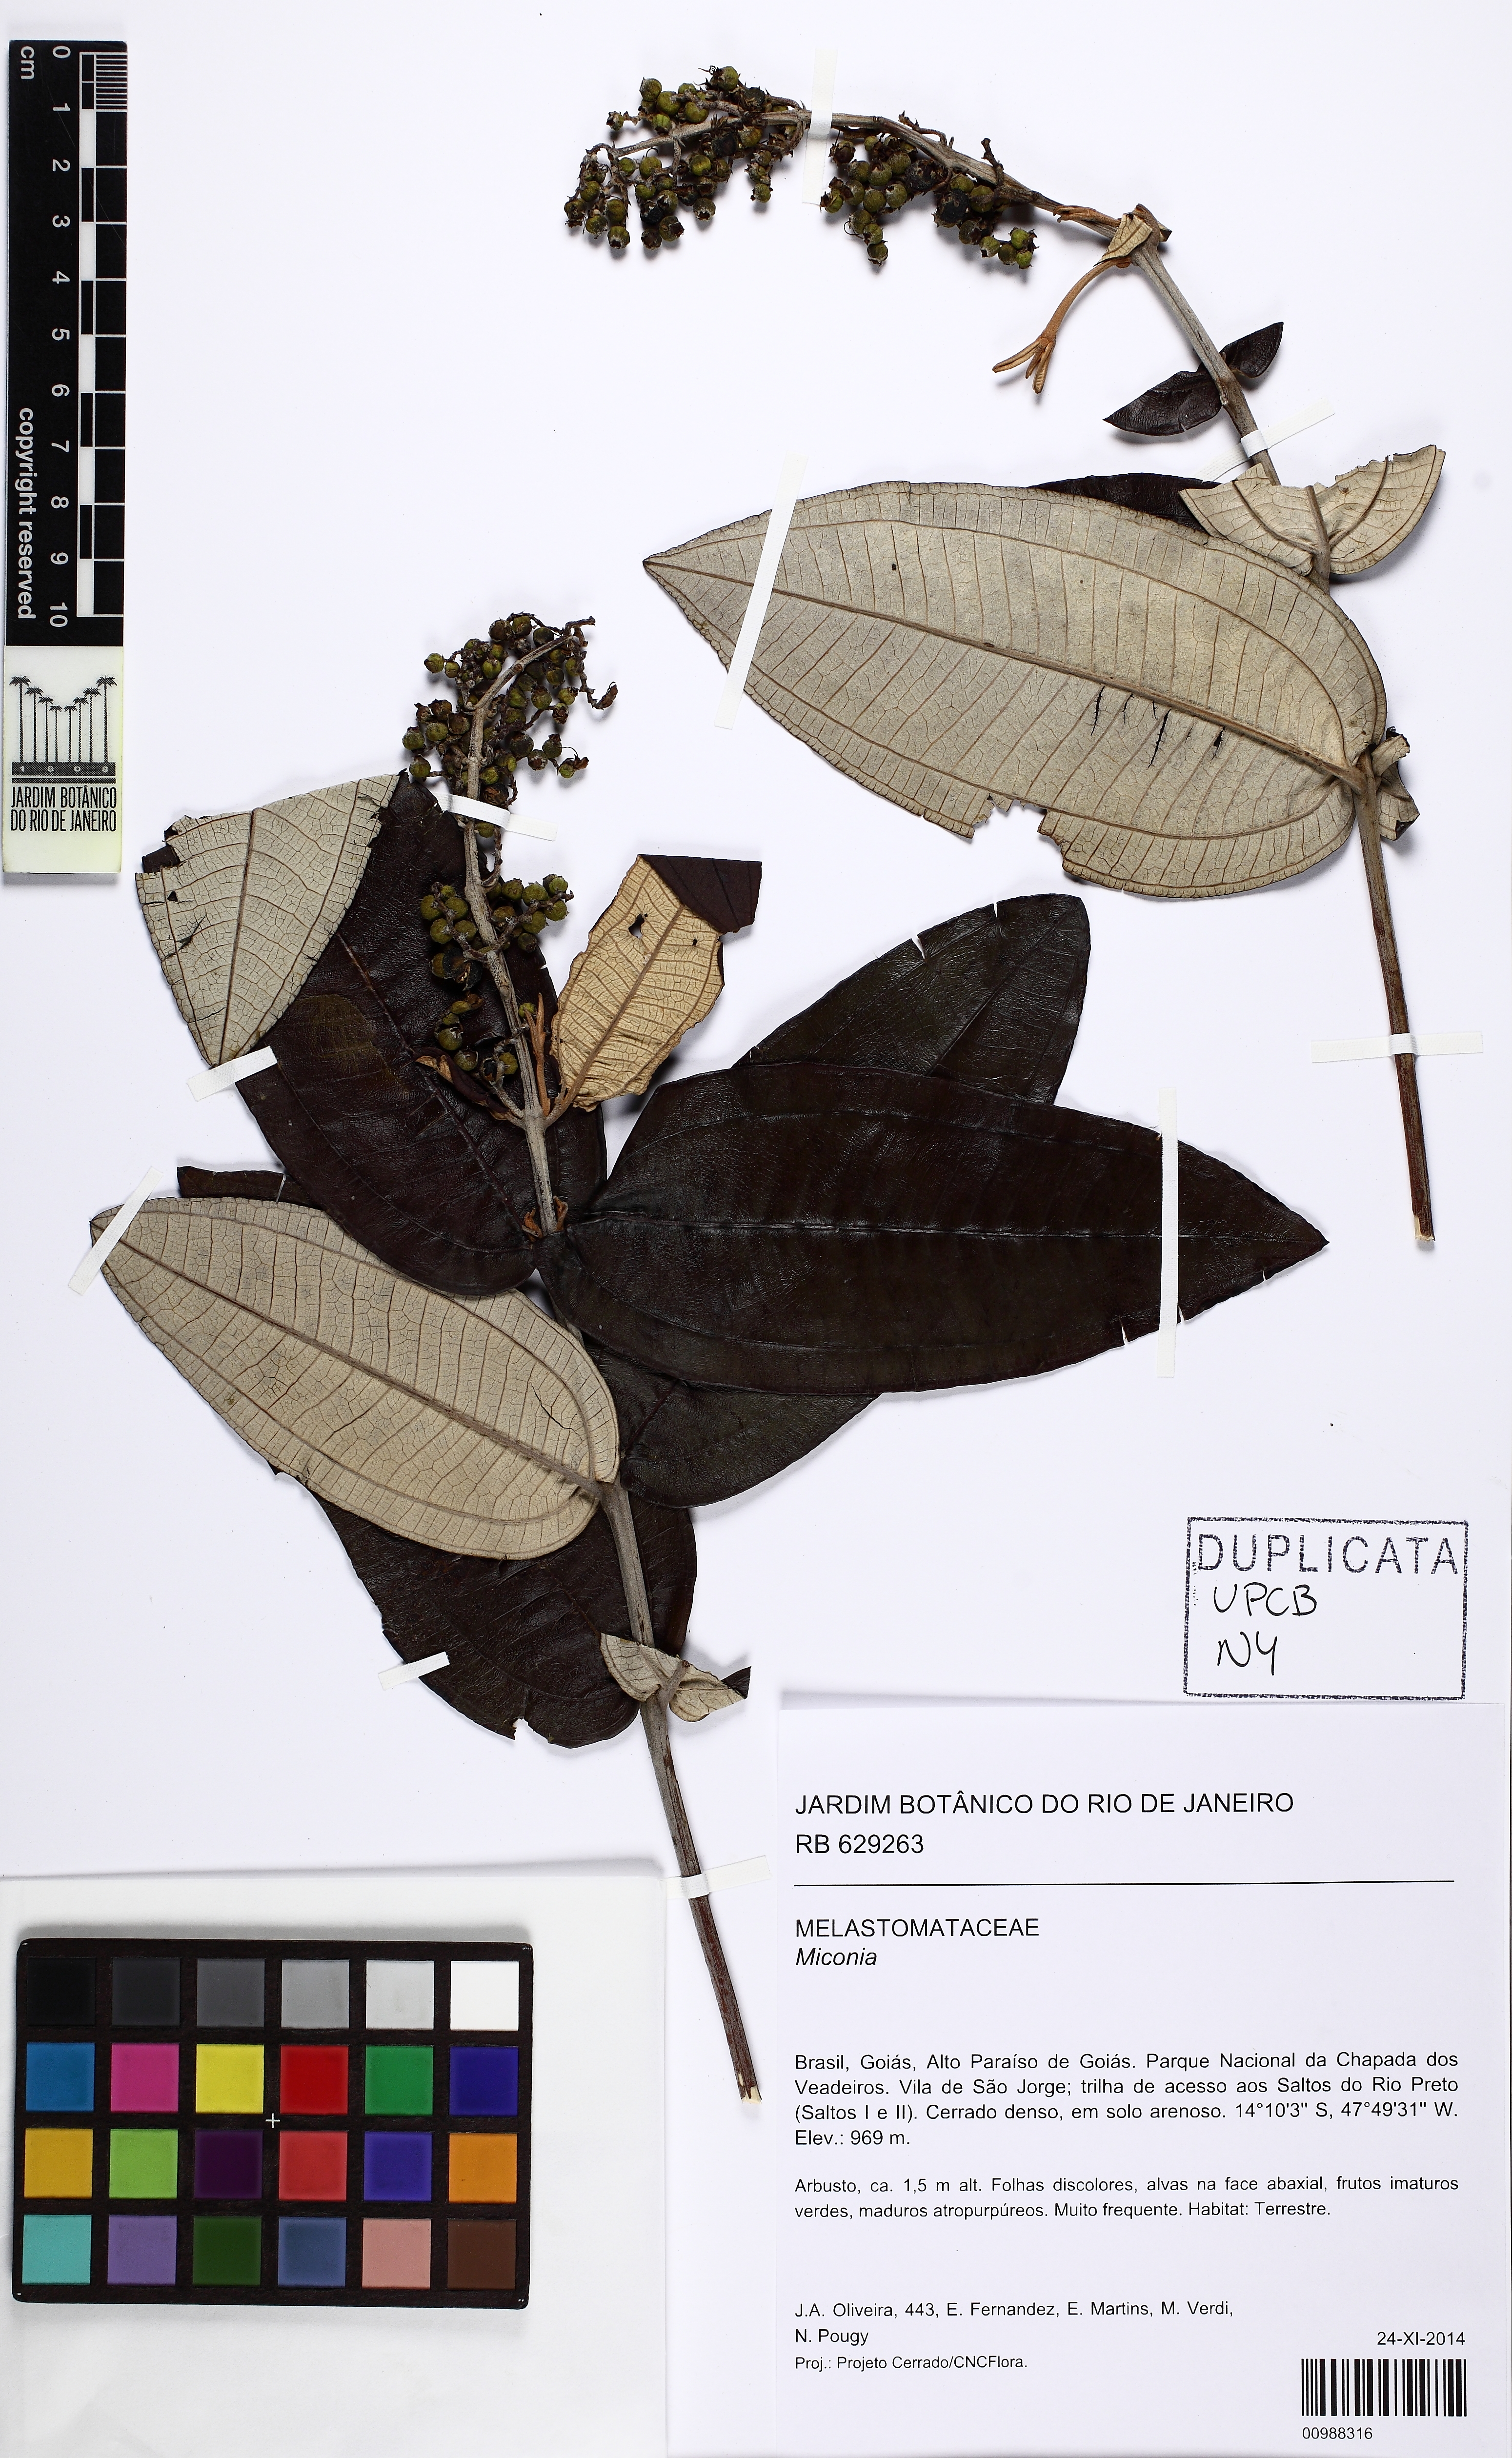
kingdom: Plantae
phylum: Tracheophyta
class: Magnoliopsida
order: Myrtales
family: Melastomataceae
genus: Miconia
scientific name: Miconia
